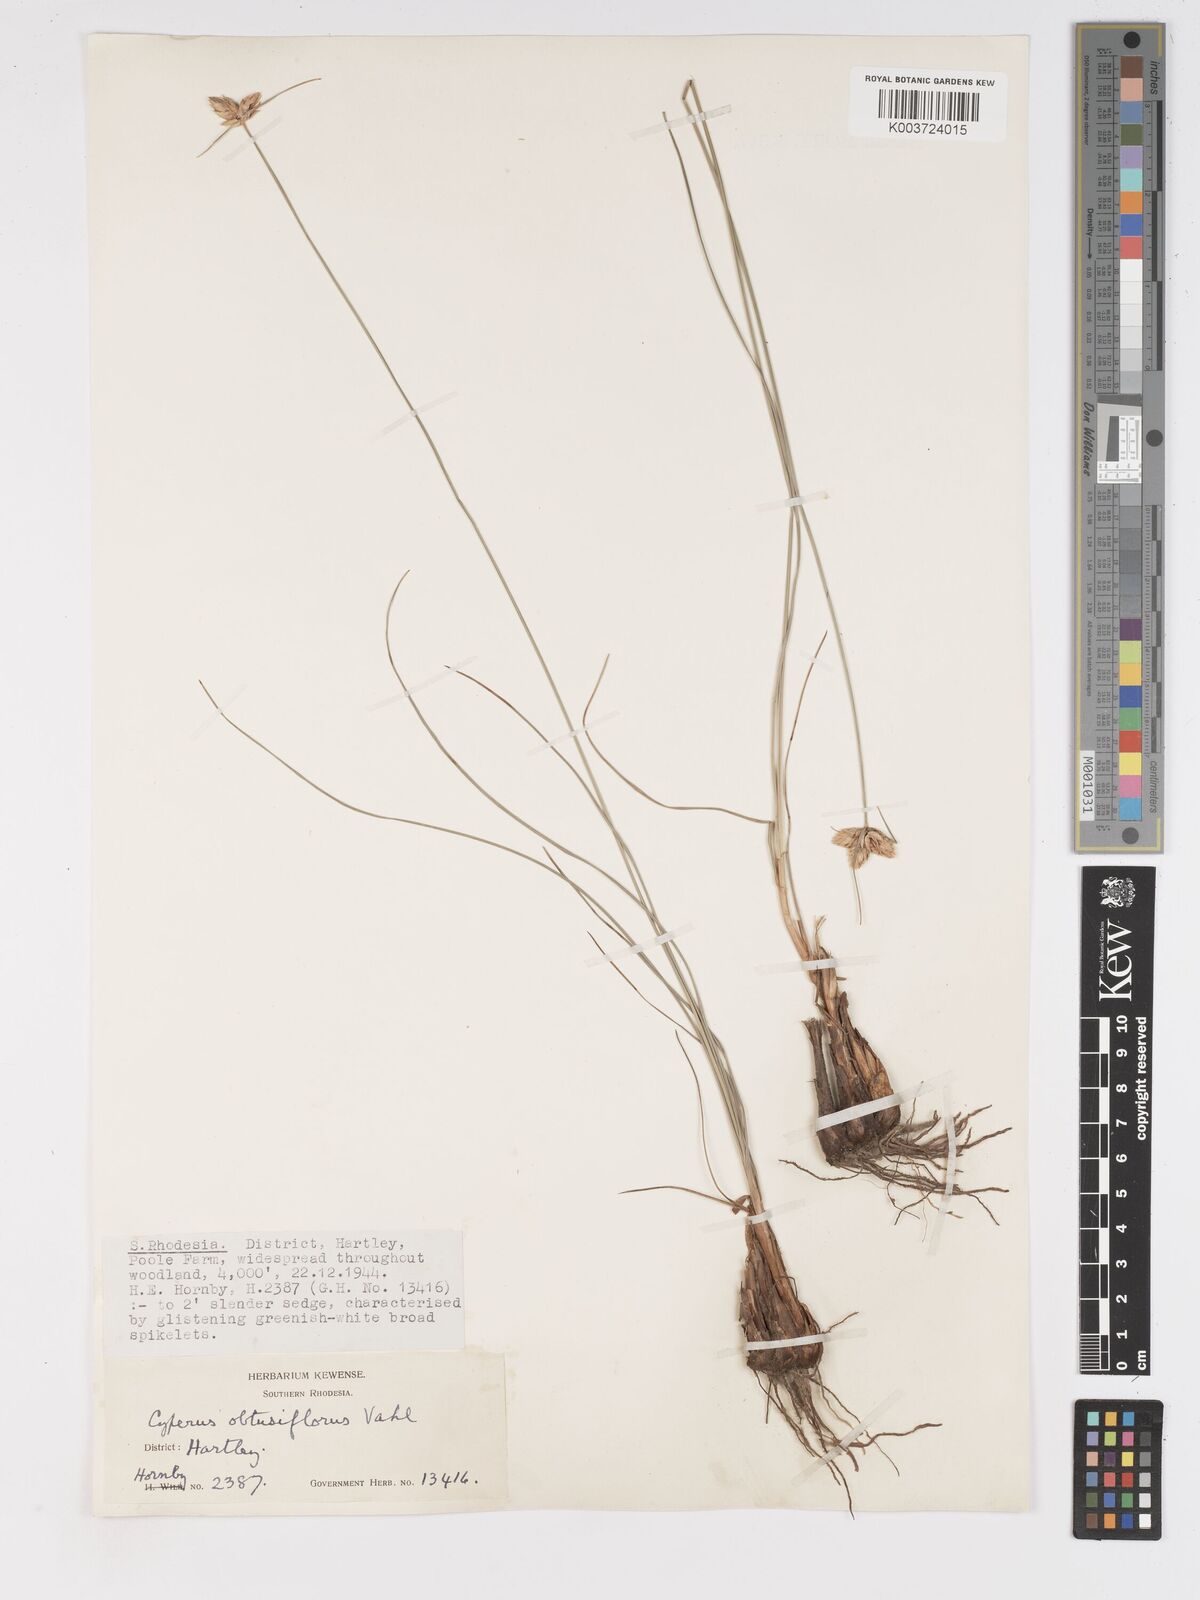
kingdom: Plantae
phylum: Tracheophyta
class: Liliopsida
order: Poales
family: Cyperaceae
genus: Cyperus
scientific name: Cyperus niveus
